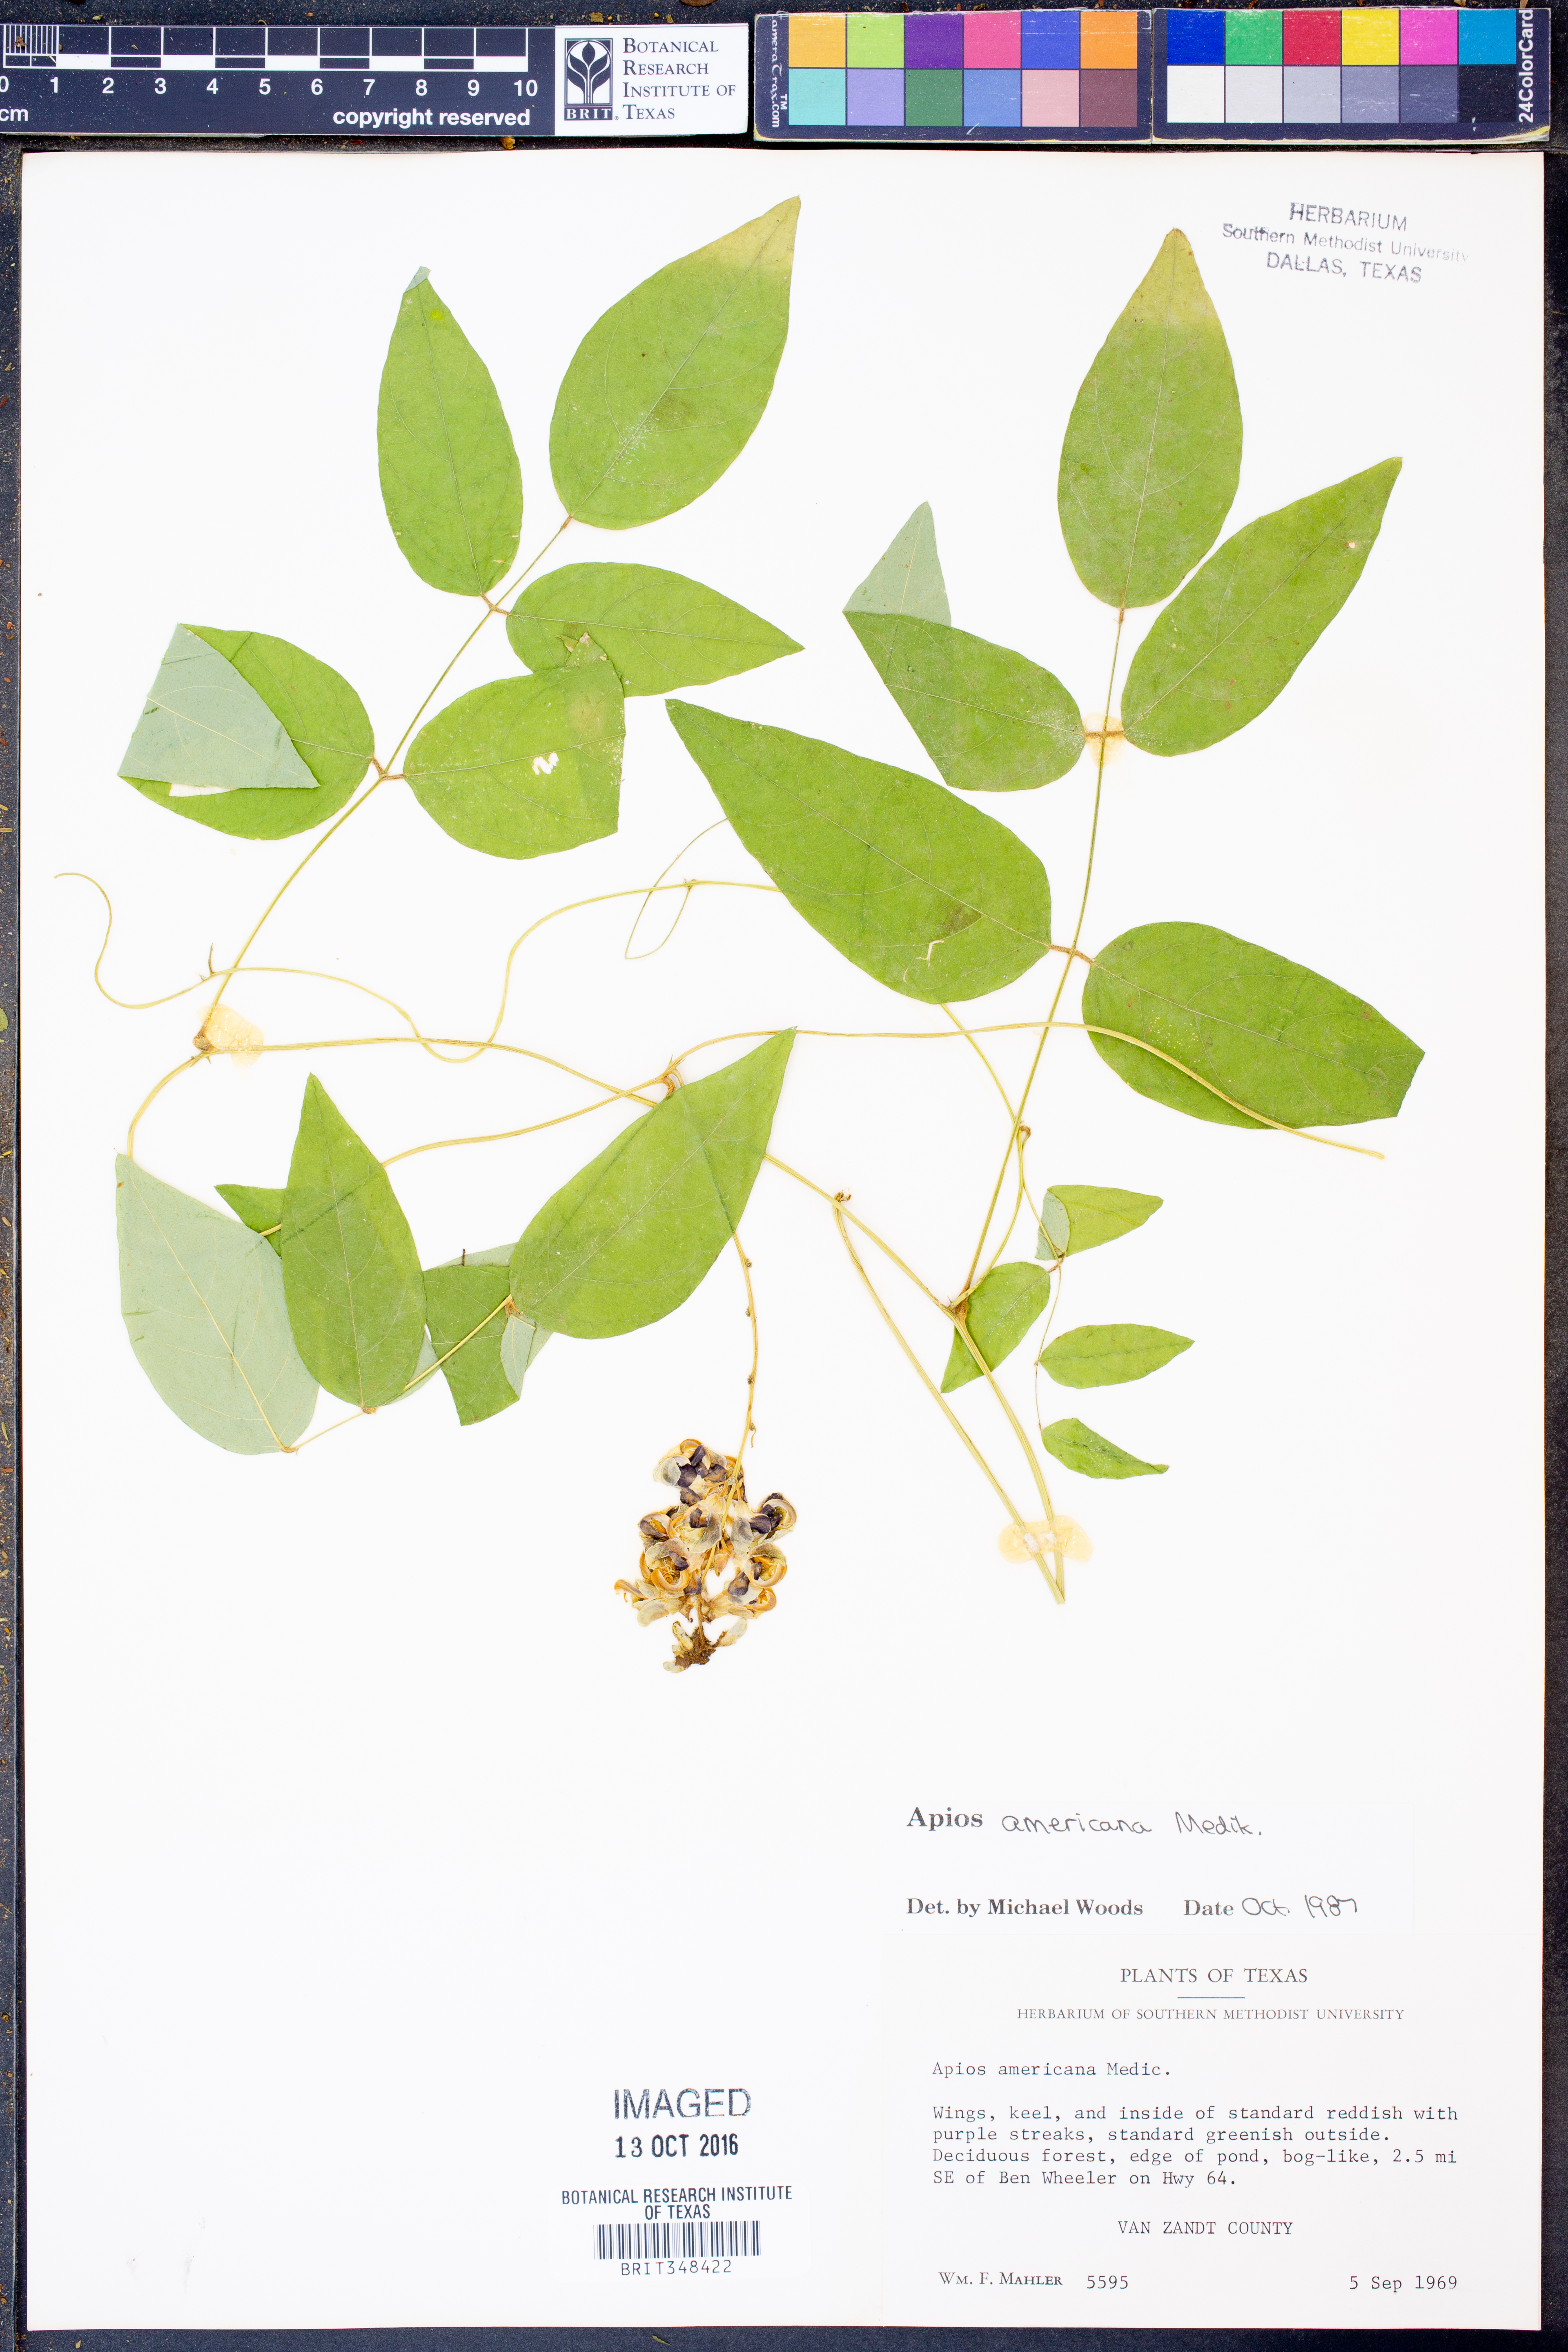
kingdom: Plantae
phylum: Tracheophyta
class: Magnoliopsida
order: Fabales
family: Fabaceae
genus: Apios
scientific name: Apios americana
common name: American potato-bean
